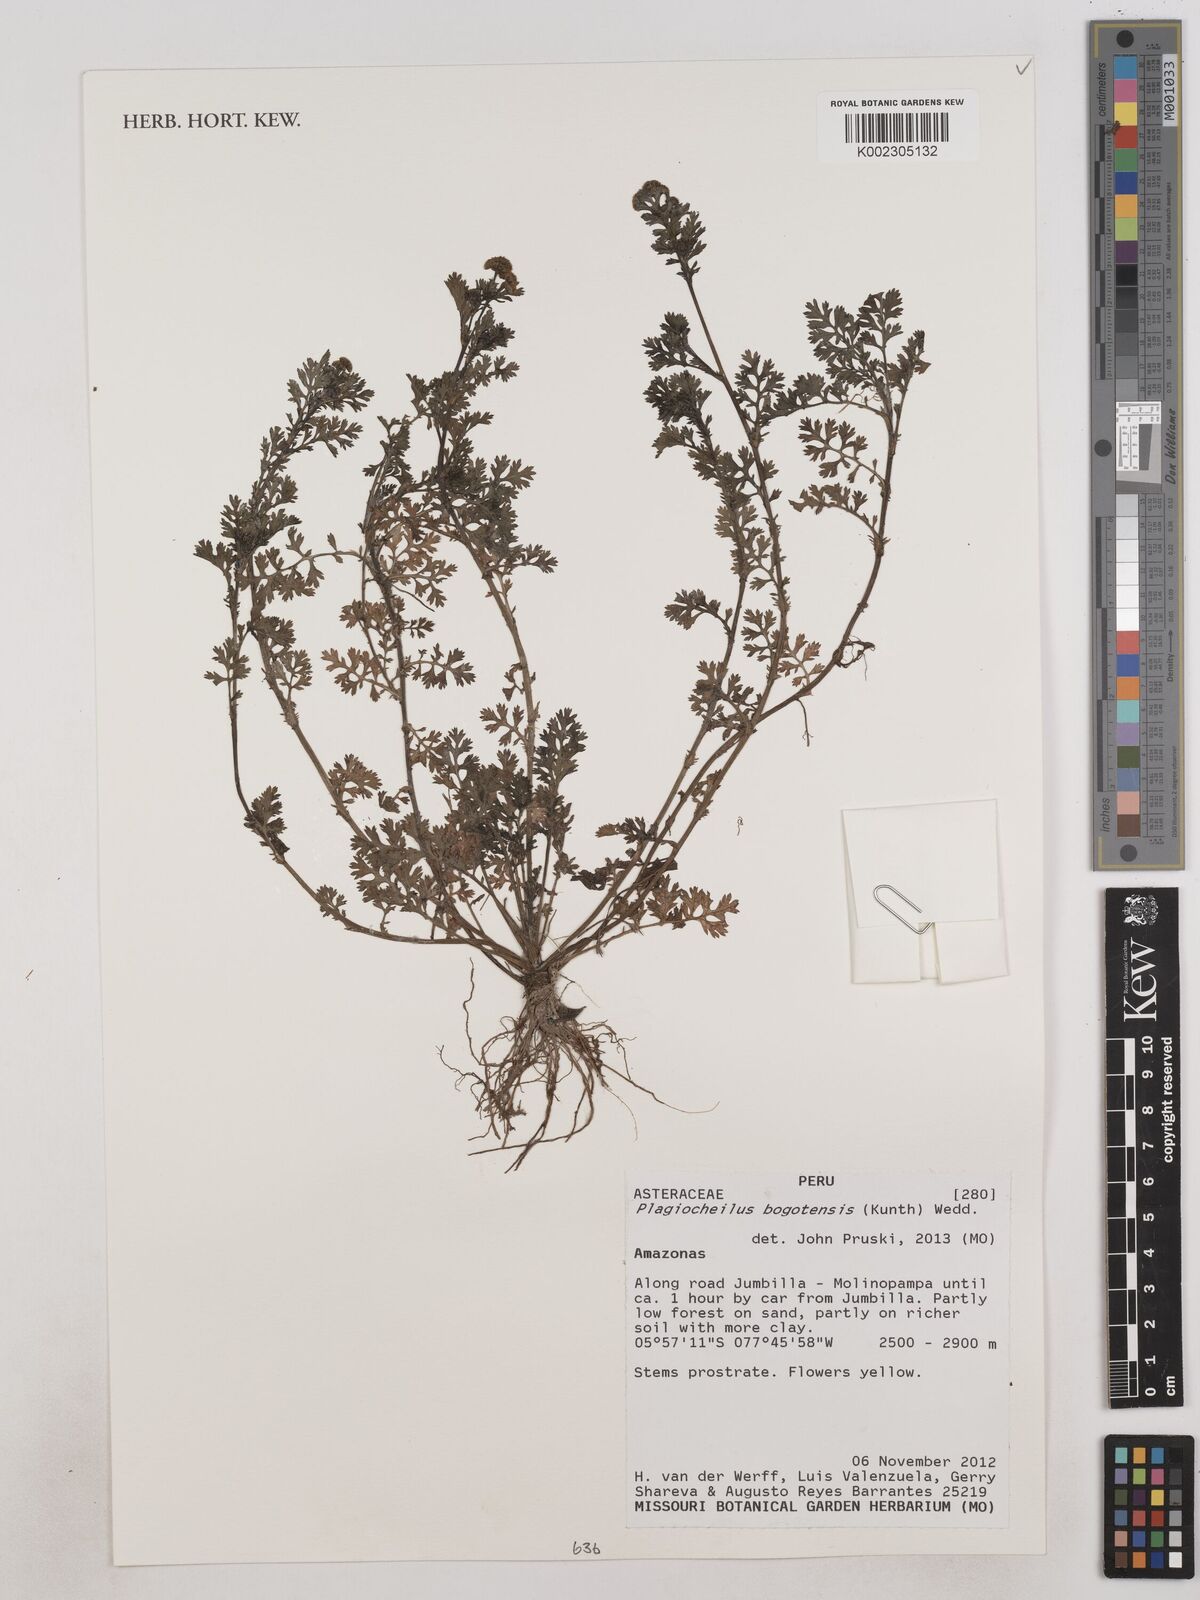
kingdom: Plantae
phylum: Tracheophyta
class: Magnoliopsida
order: Asterales
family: Asteraceae
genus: Plagiocheilus
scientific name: Plagiocheilus bogotensis
